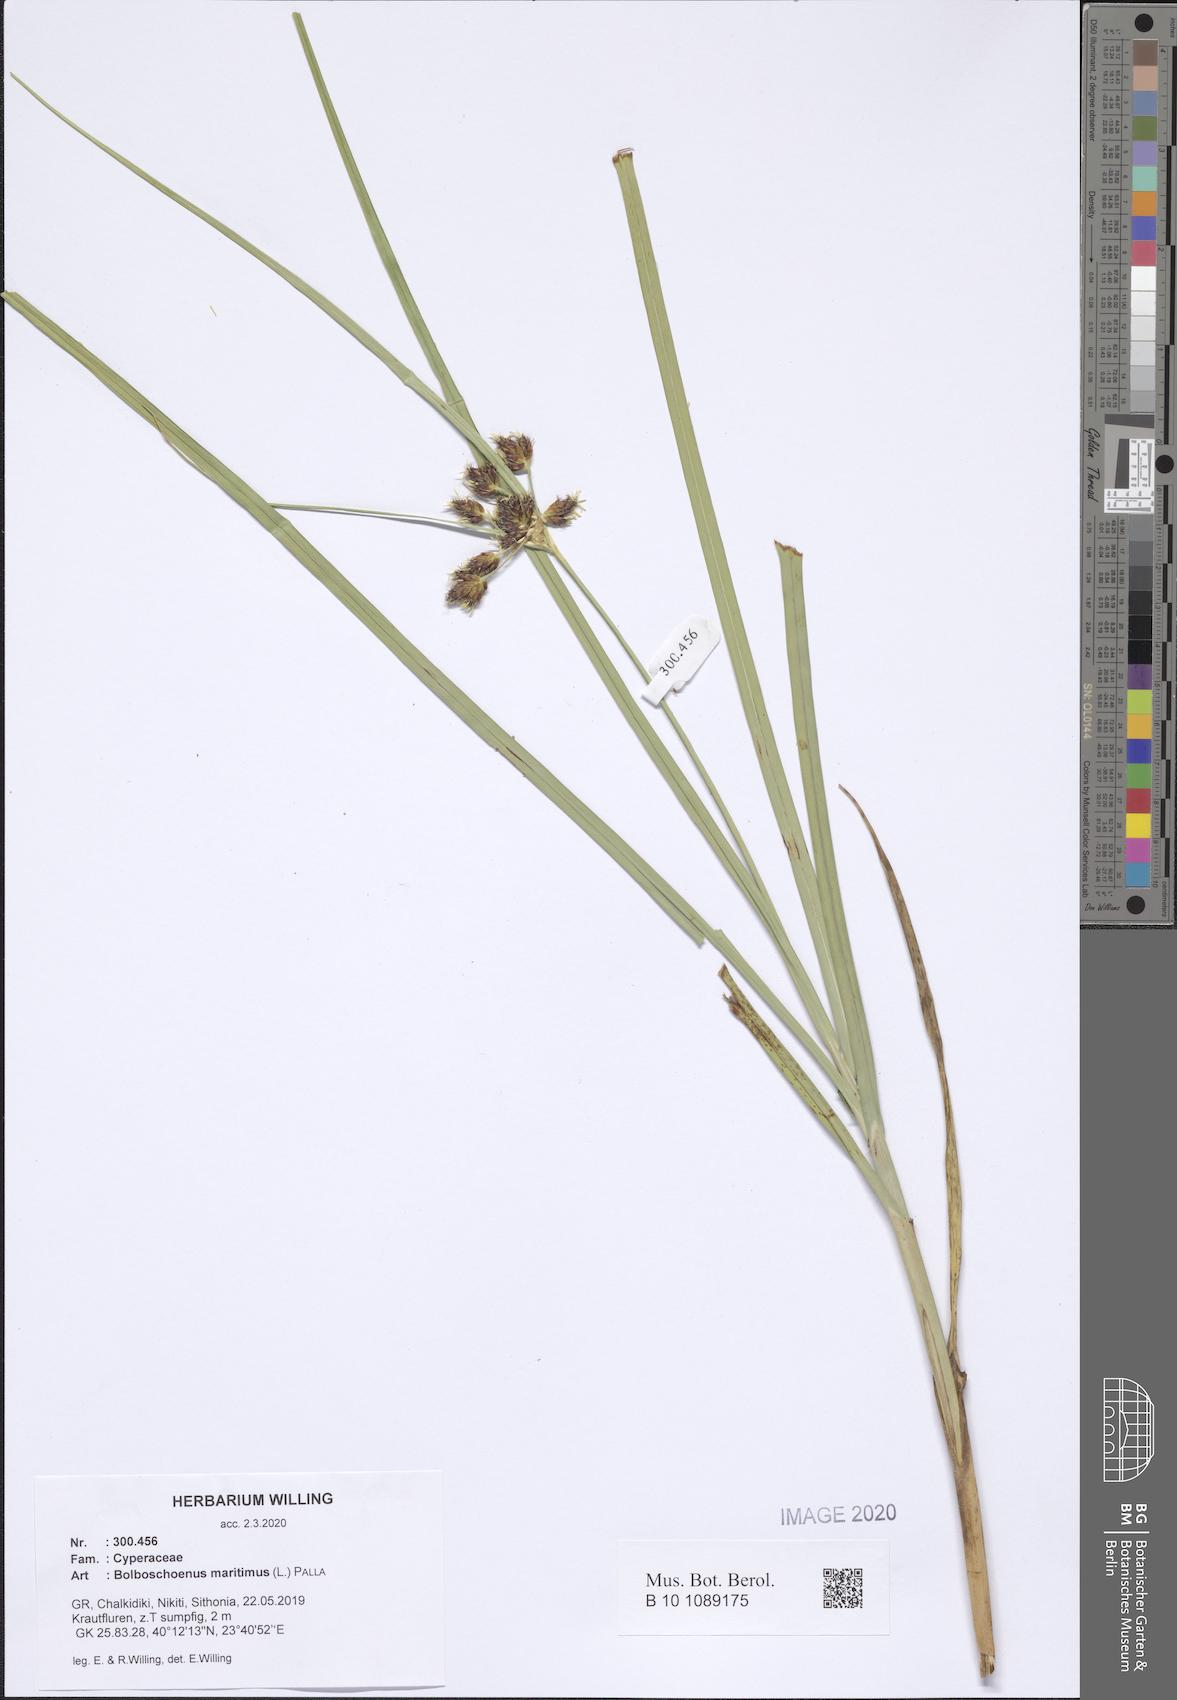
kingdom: Plantae
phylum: Tracheophyta
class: Liliopsida
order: Poales
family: Cyperaceae
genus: Bolboschoenus
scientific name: Bolboschoenus maritimus
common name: Sea club-rush
